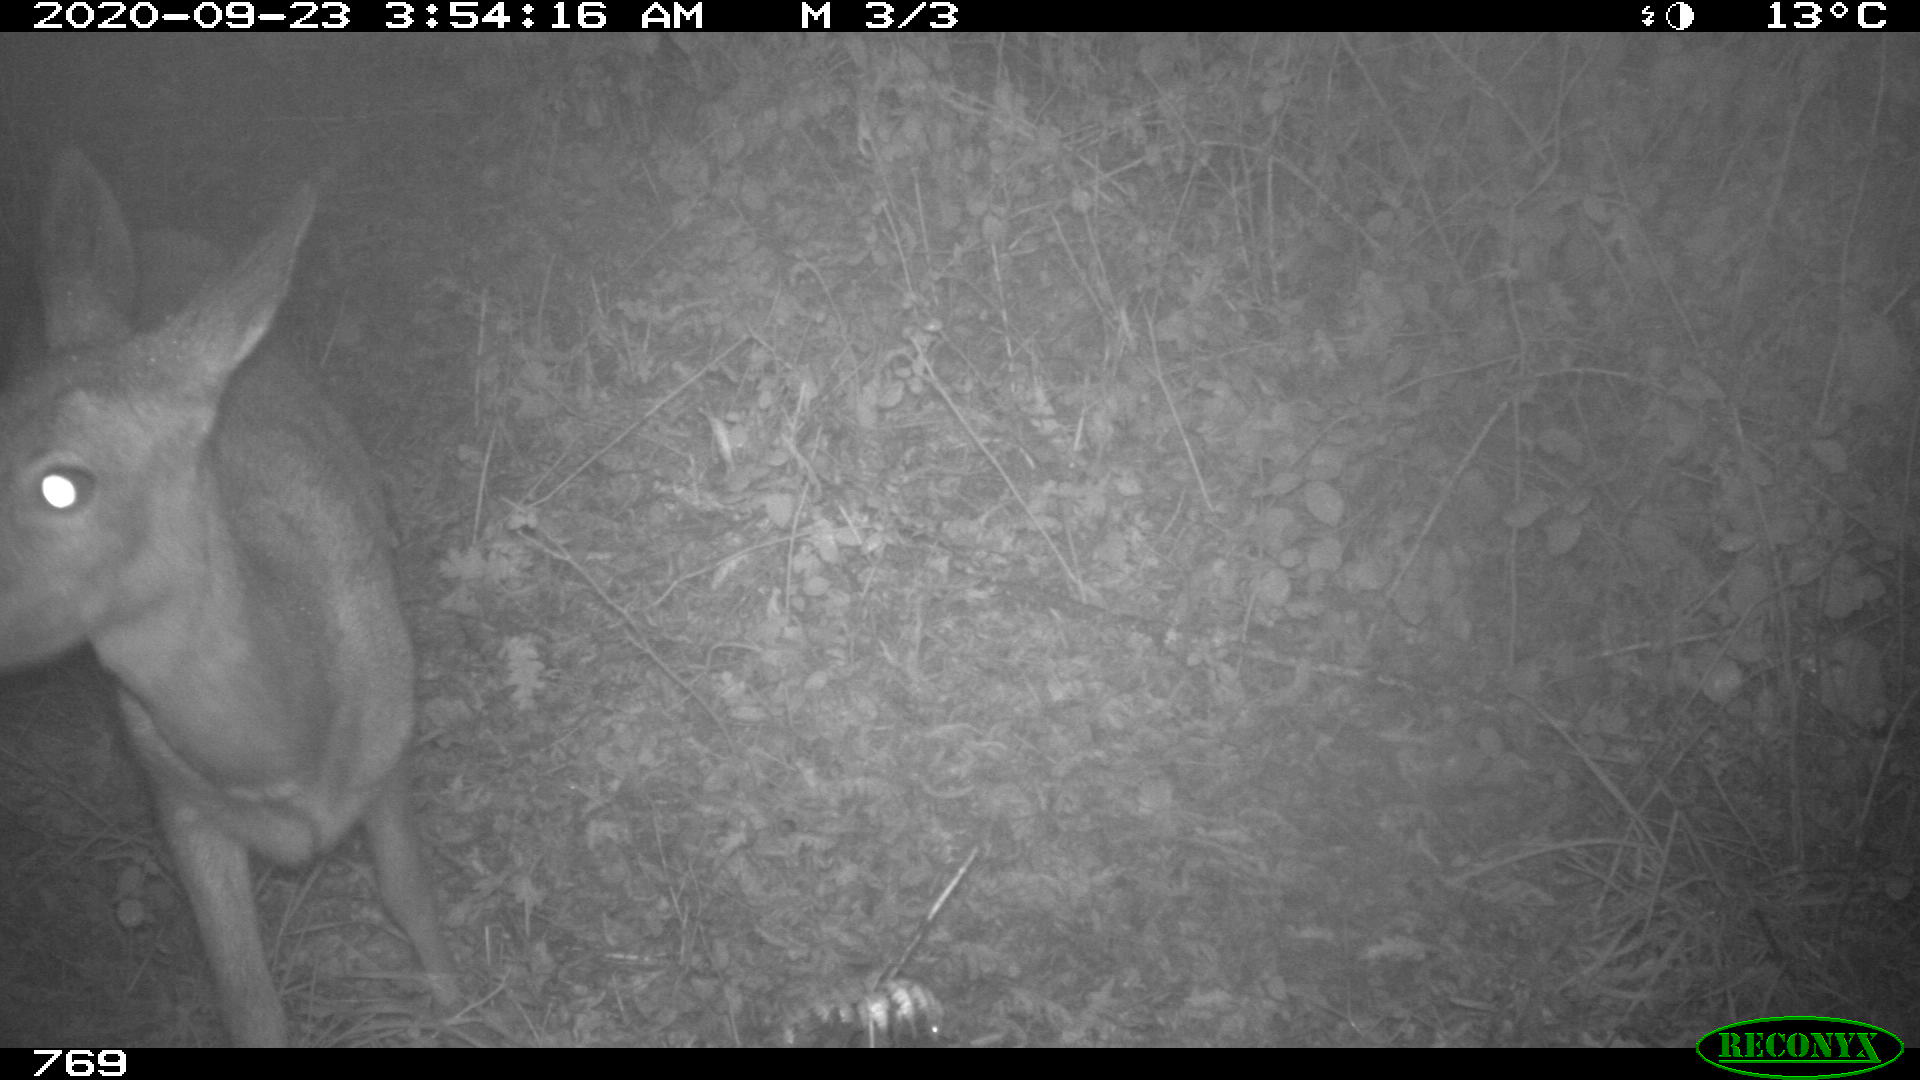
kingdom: Animalia
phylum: Chordata
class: Mammalia
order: Artiodactyla
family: Cervidae
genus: Capreolus
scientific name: Capreolus capreolus
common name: Western roe deer
